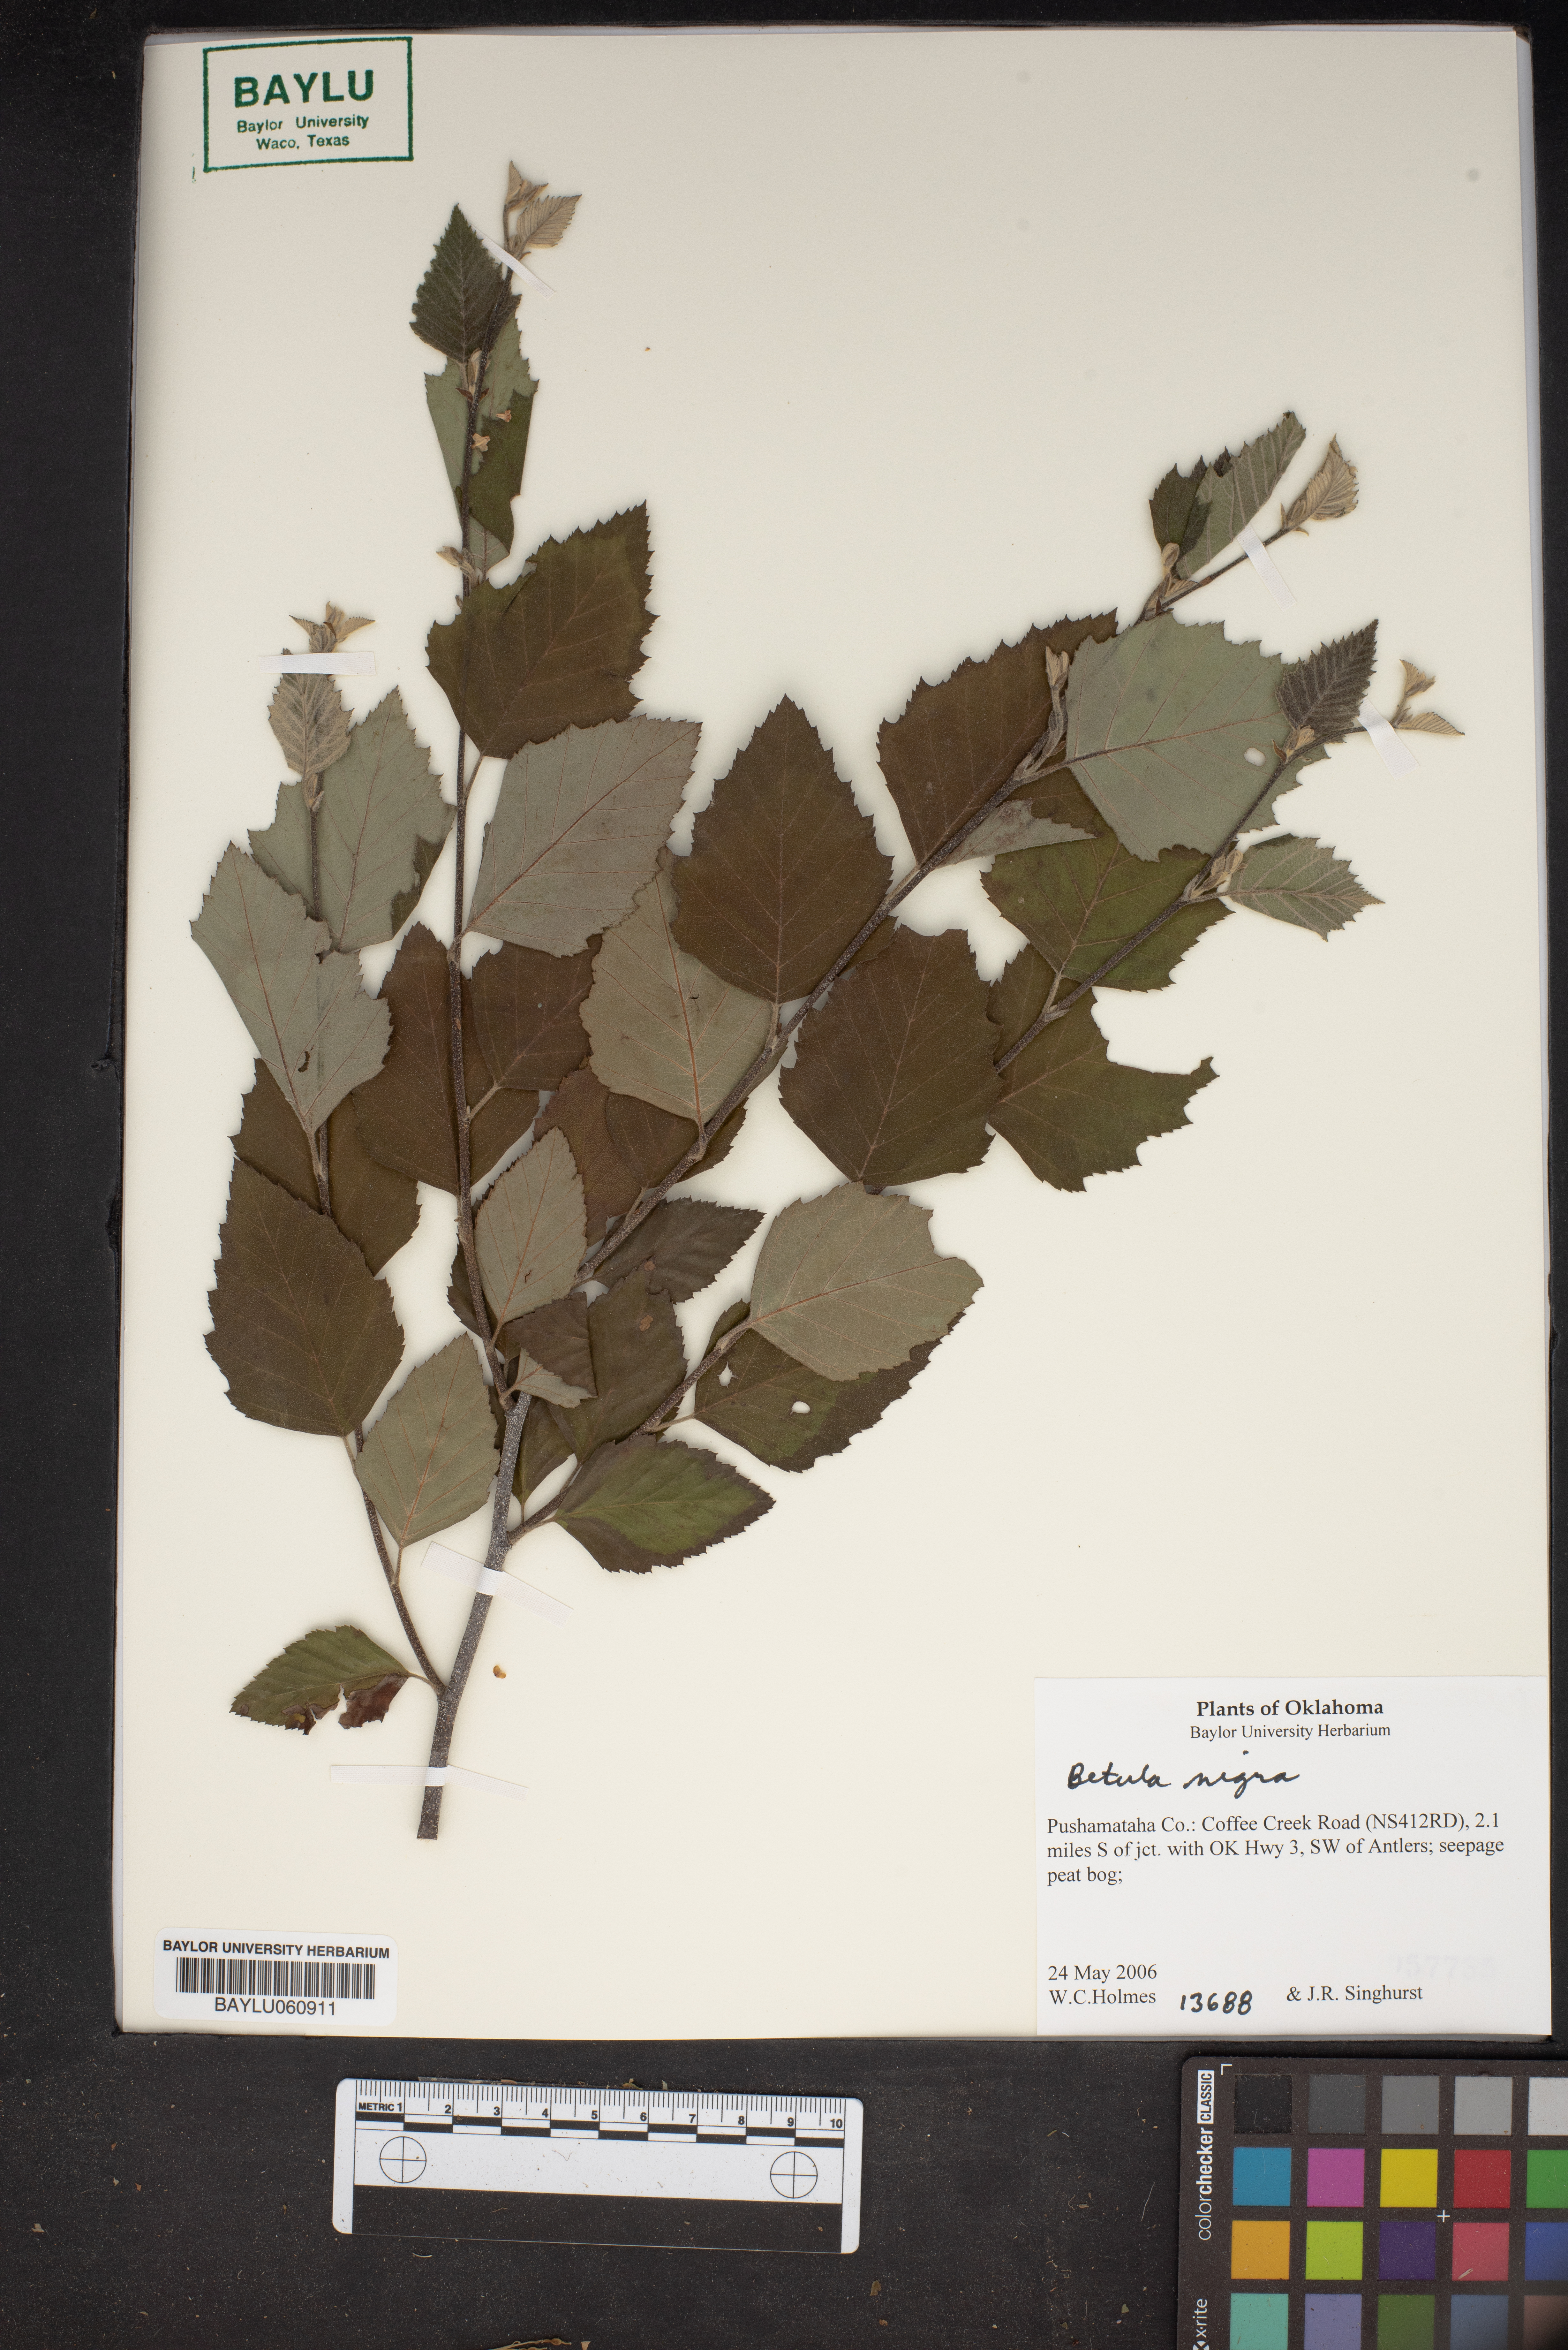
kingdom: Plantae
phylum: Tracheophyta
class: Magnoliopsida
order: Fagales
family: Betulaceae
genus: Betula
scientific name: Betula nigra
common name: Black birch
